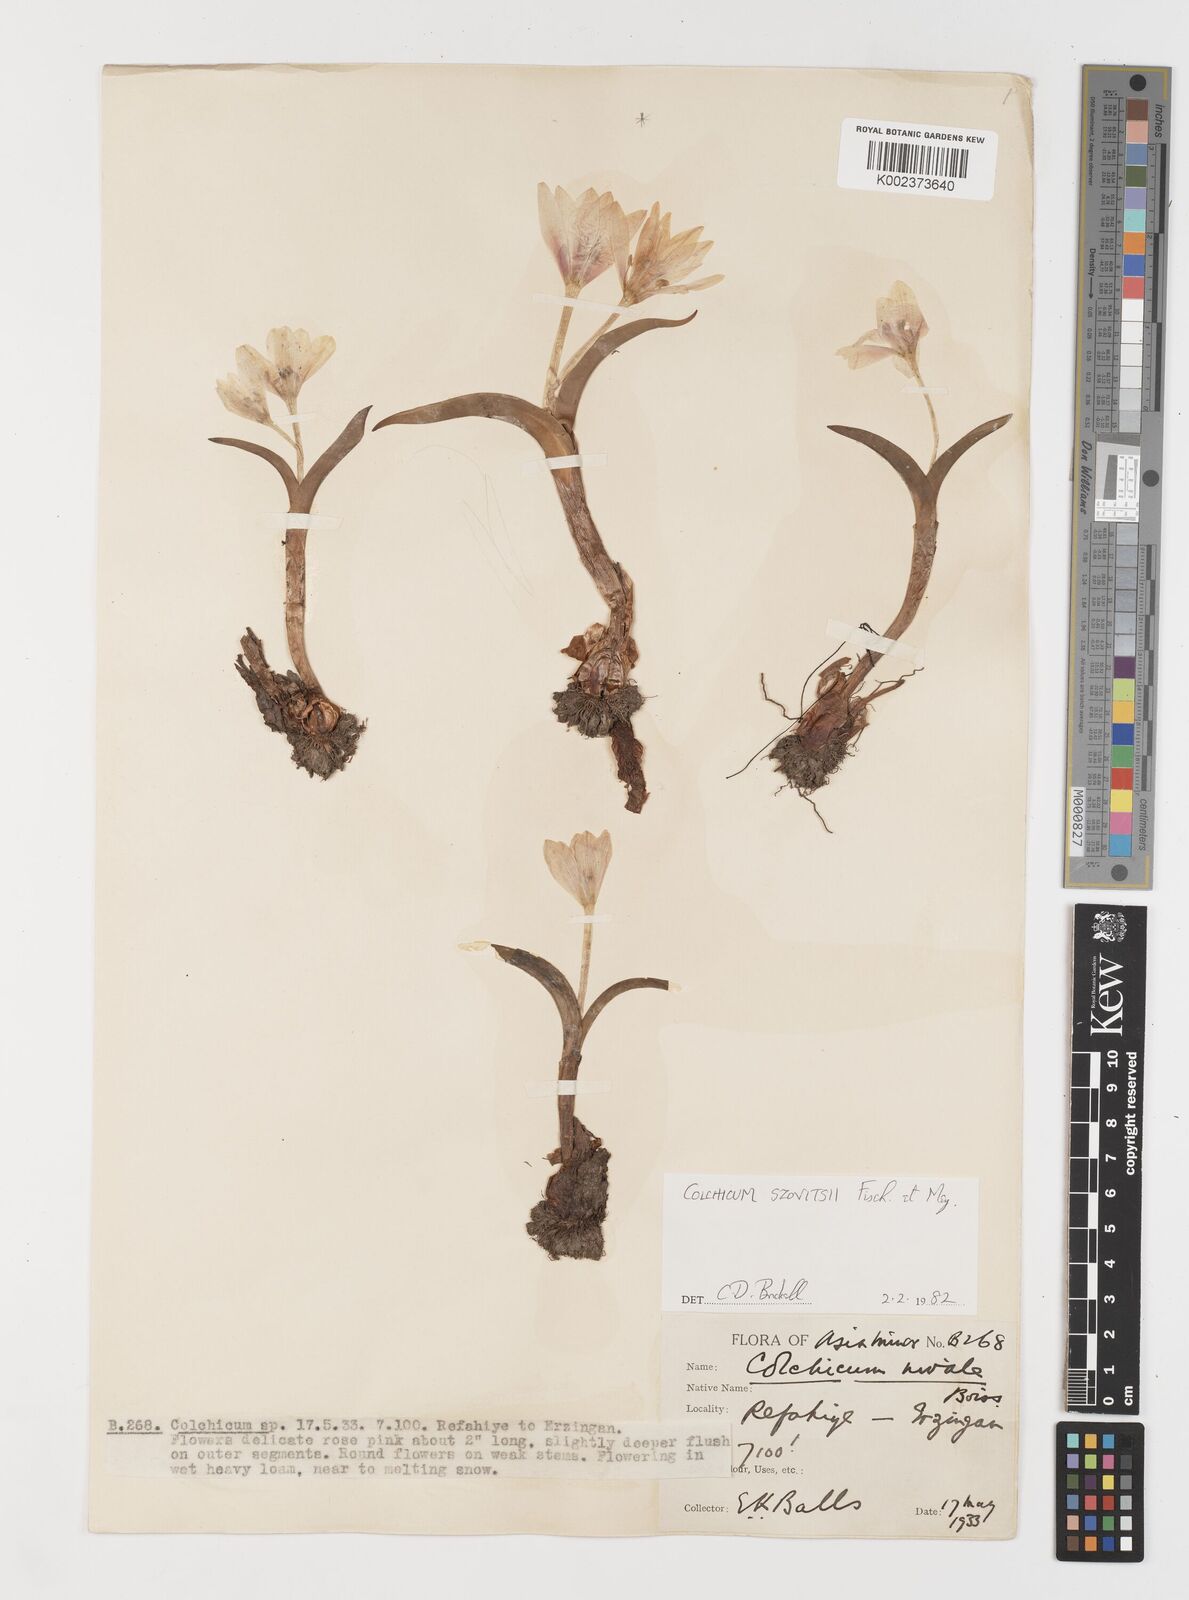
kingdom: Plantae
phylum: Tracheophyta
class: Liliopsida
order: Liliales
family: Colchicaceae
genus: Colchicum
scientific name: Colchicum szovitsii
